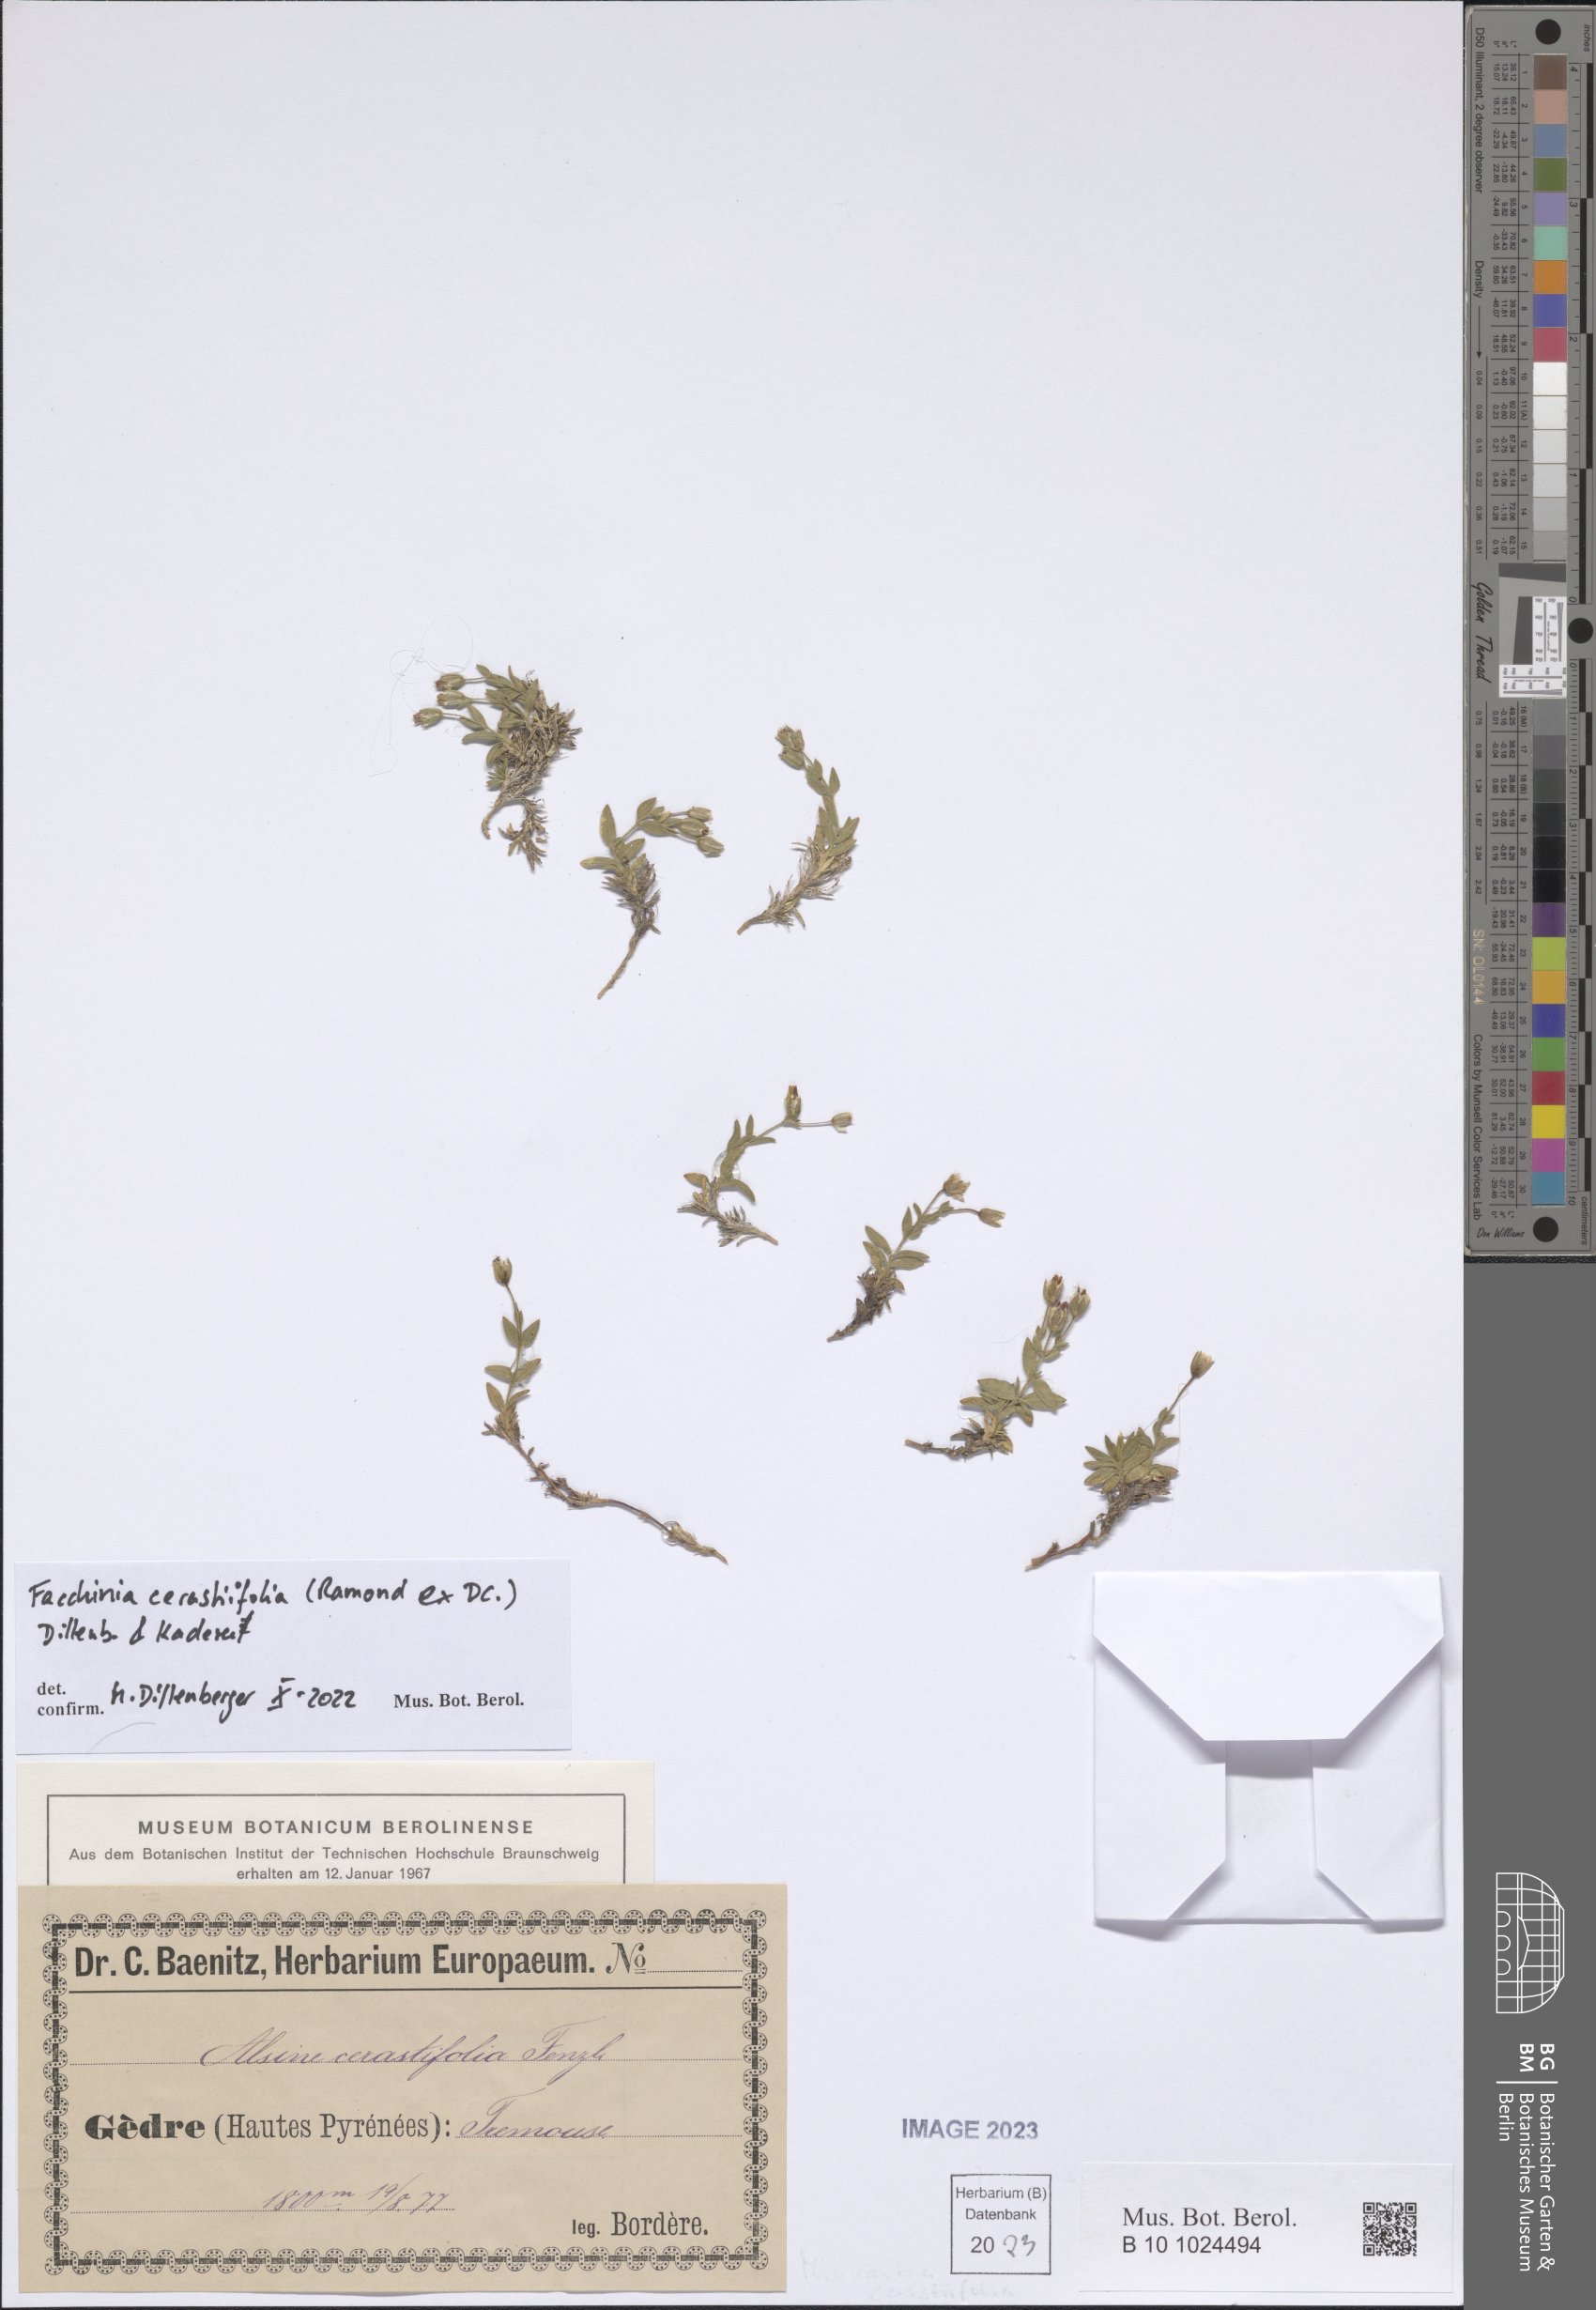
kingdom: Plantae
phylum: Tracheophyta
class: Magnoliopsida
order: Caryophyllales
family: Caryophyllaceae
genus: Facchinia
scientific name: Facchinia cerastiifolia
